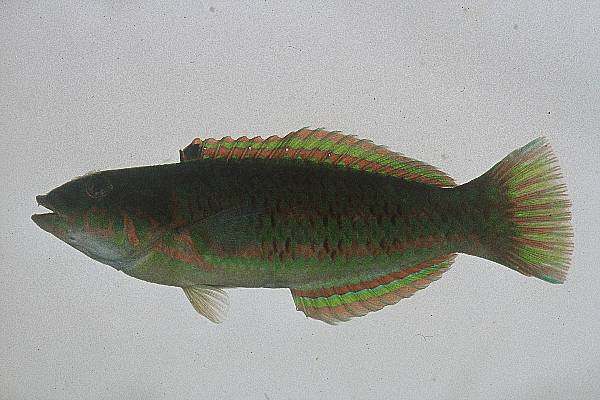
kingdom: Animalia
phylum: Chordata
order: Perciformes
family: Labridae
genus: Thalassoma
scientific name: Thalassoma purpureum
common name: Parrotfish
